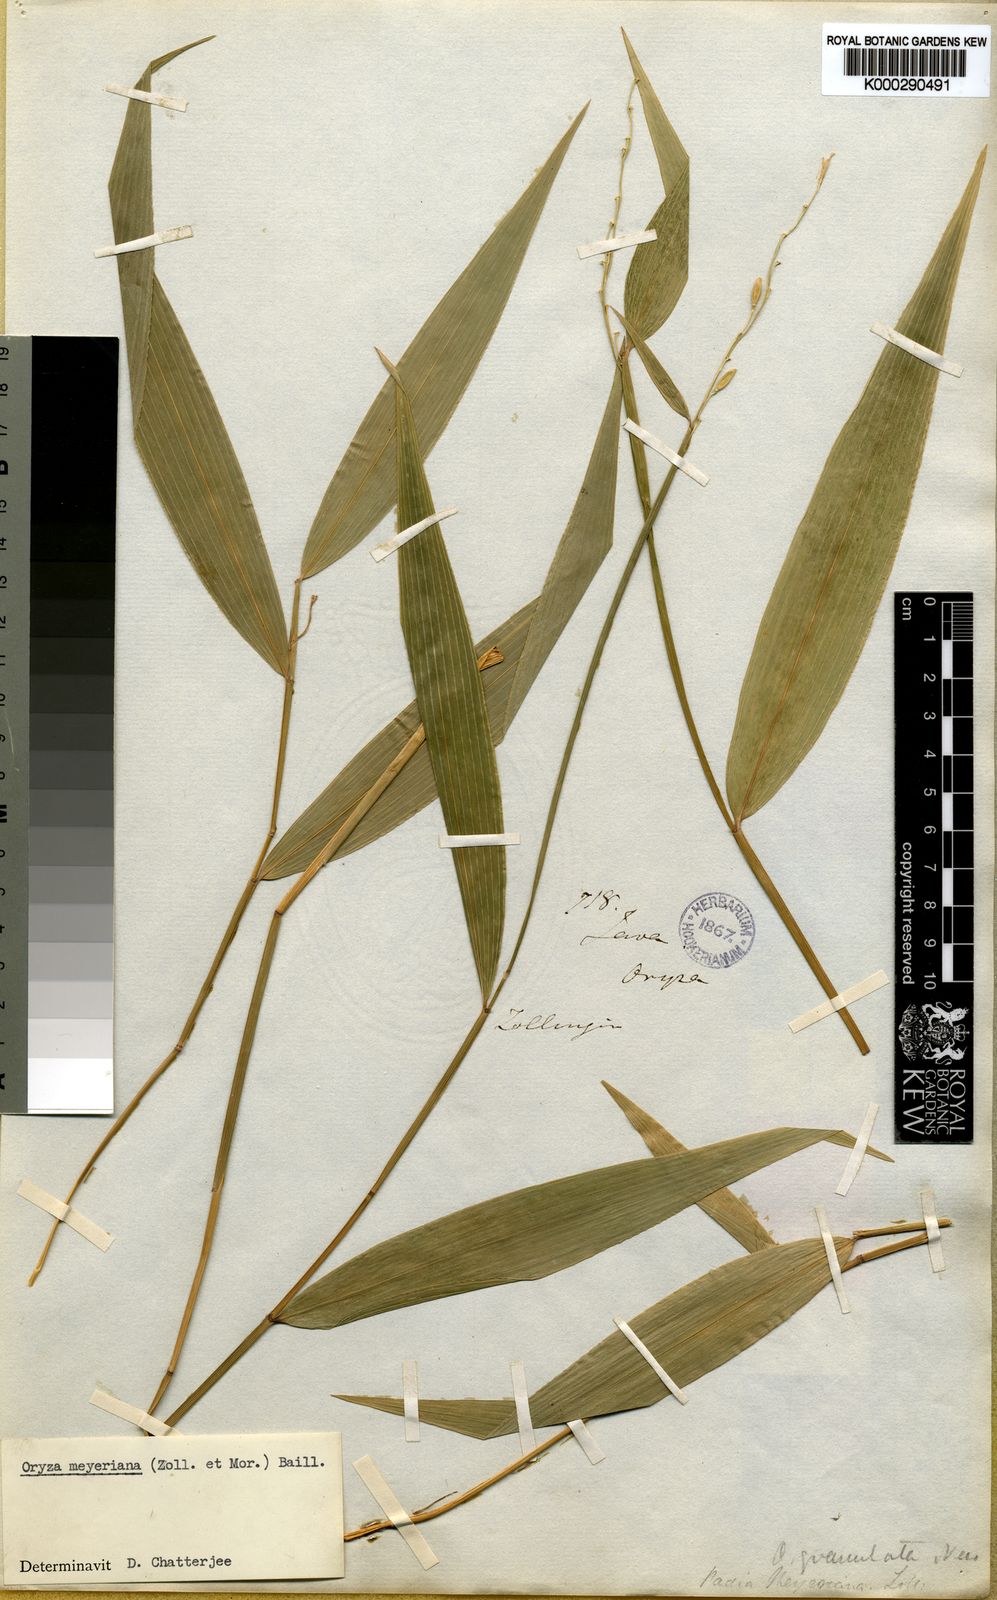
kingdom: Plantae
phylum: Tracheophyta
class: Liliopsida
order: Poales
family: Poaceae
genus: Oryza
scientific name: Oryza meyeriana
